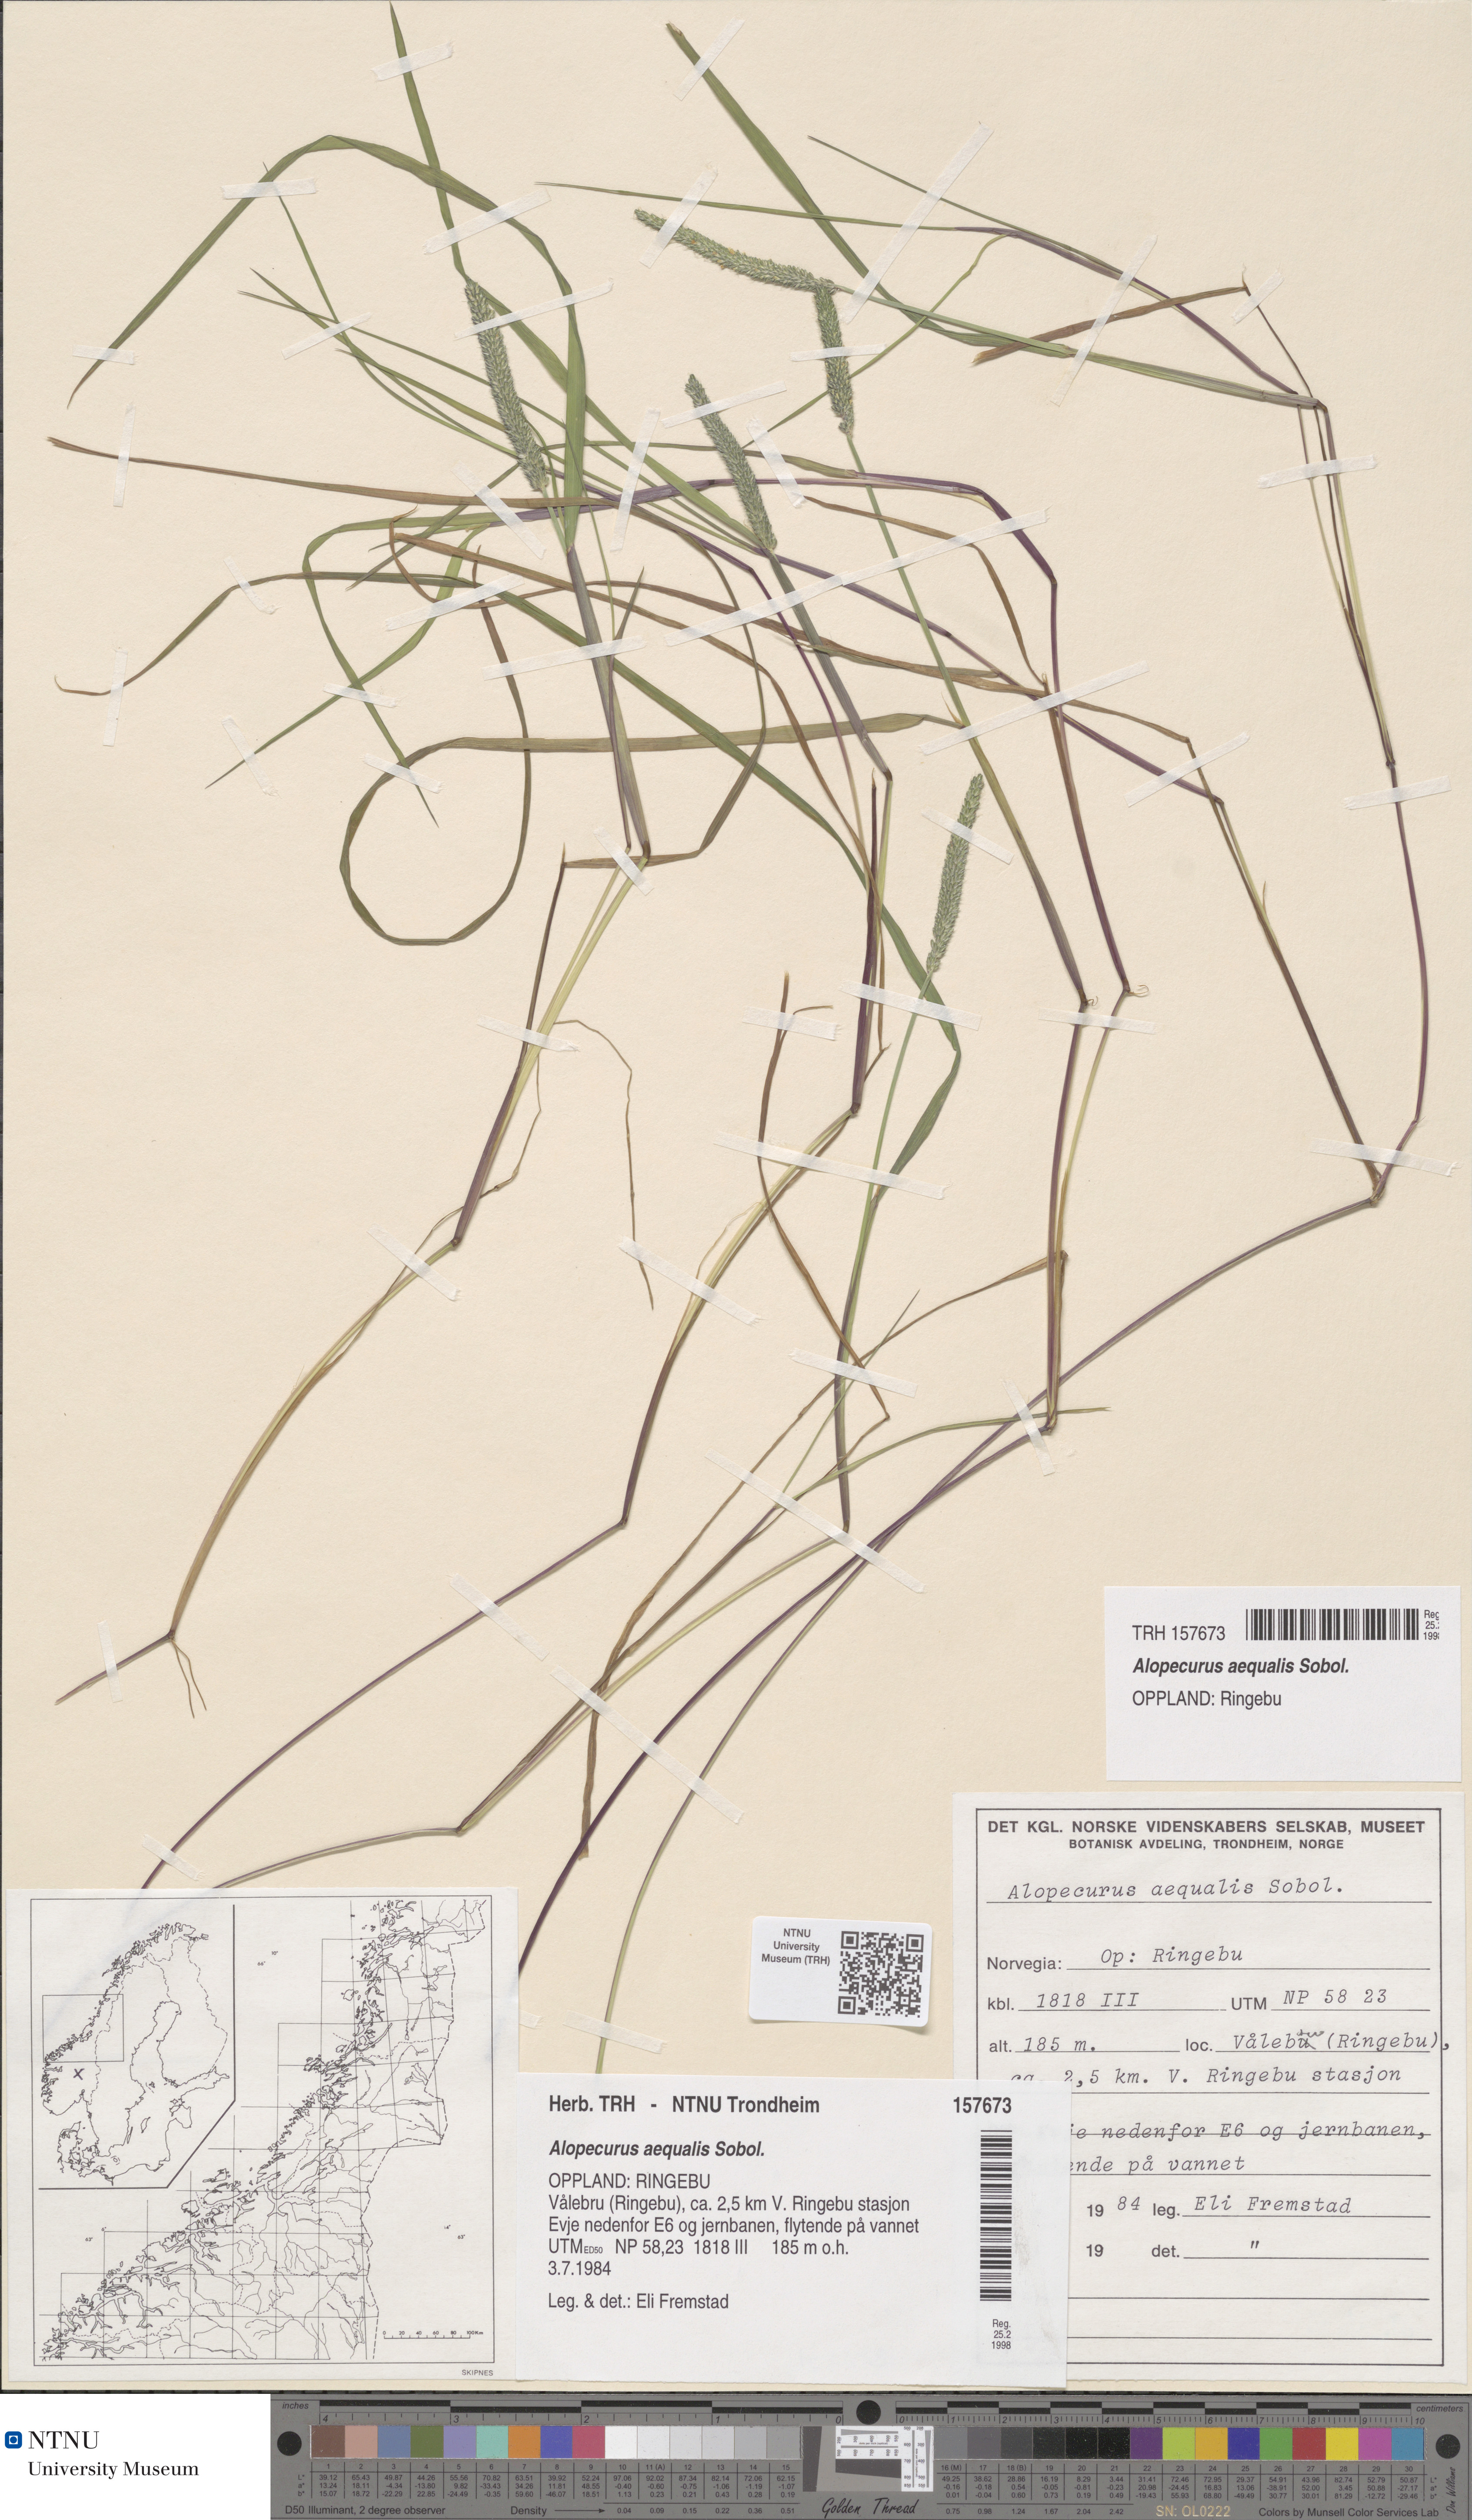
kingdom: Plantae
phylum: Tracheophyta
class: Liliopsida
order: Poales
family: Poaceae
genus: Alopecurus
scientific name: Alopecurus aequalis
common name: Orange foxtail
